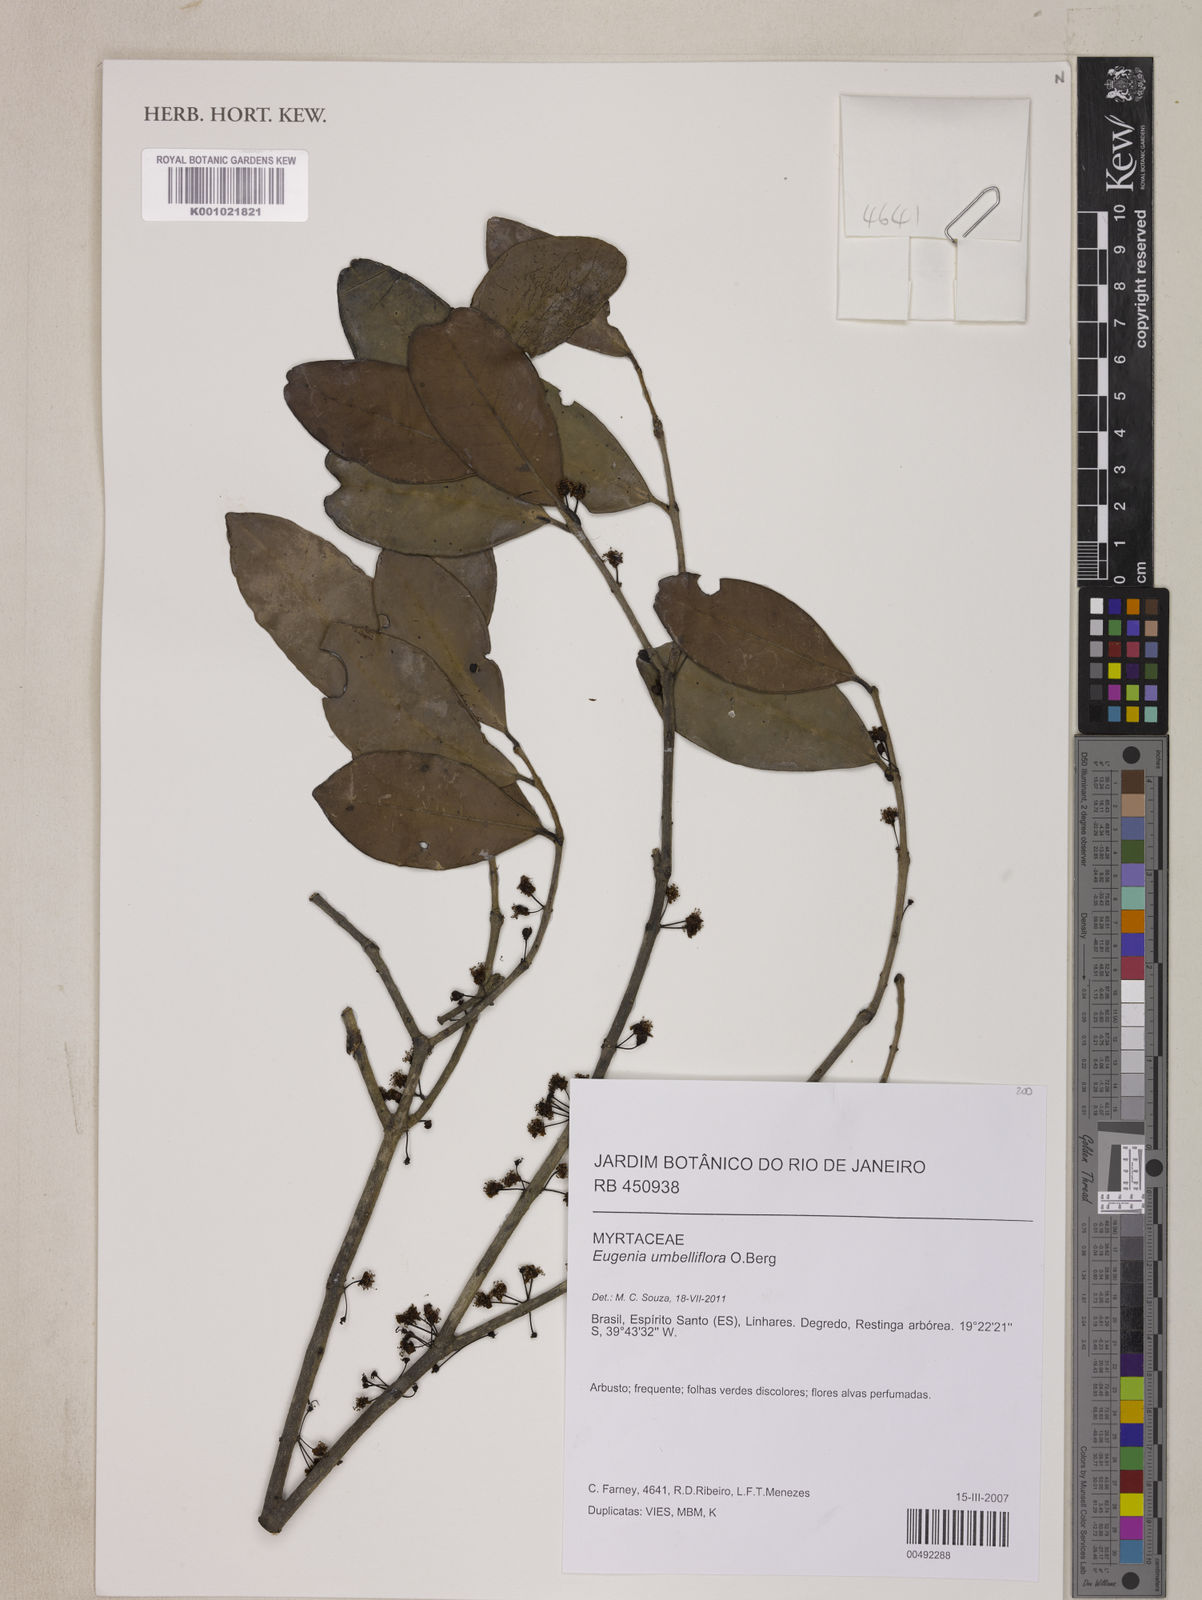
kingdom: Plantae
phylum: Tracheophyta
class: Magnoliopsida
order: Myrtales
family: Myrtaceae
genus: Eugenia
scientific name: Eugenia astringens
